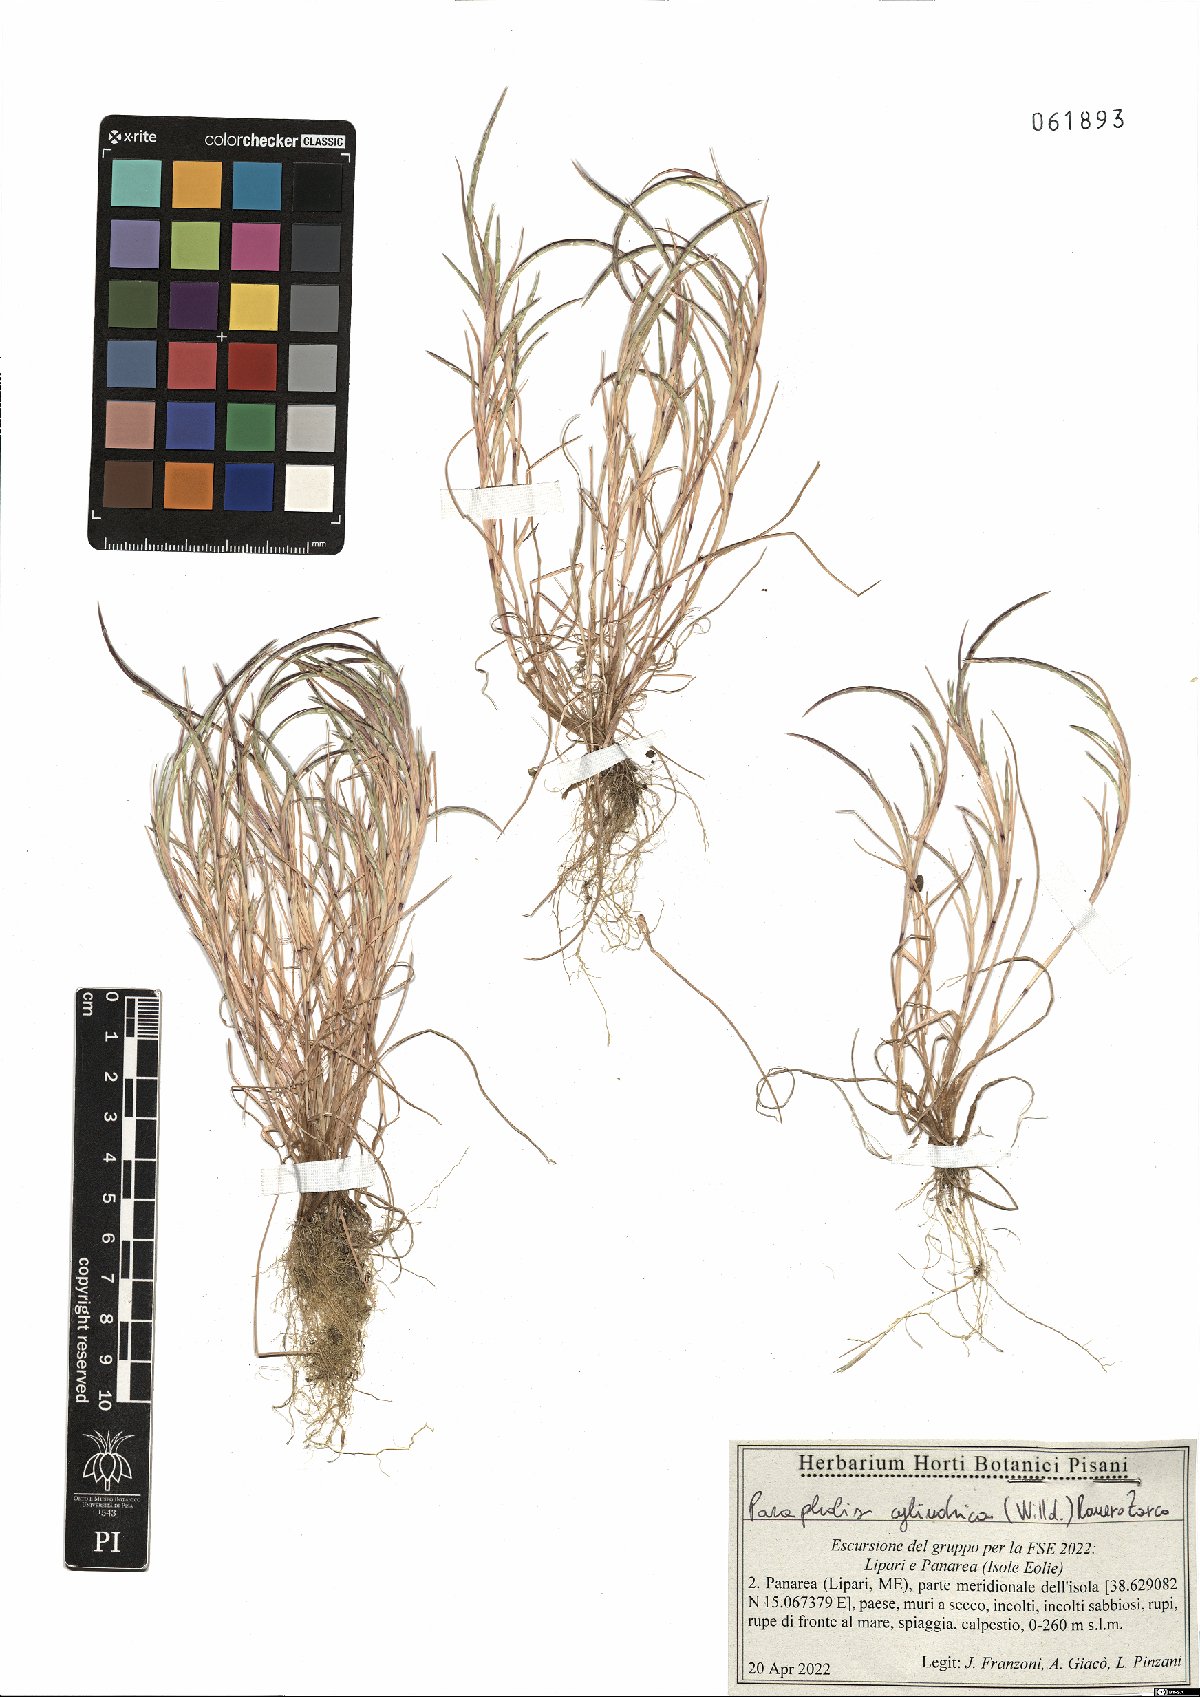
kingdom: Plantae
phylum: Tracheophyta
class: Liliopsida
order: Poales
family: Poaceae
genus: Parapholis
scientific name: Parapholis cylindrica
